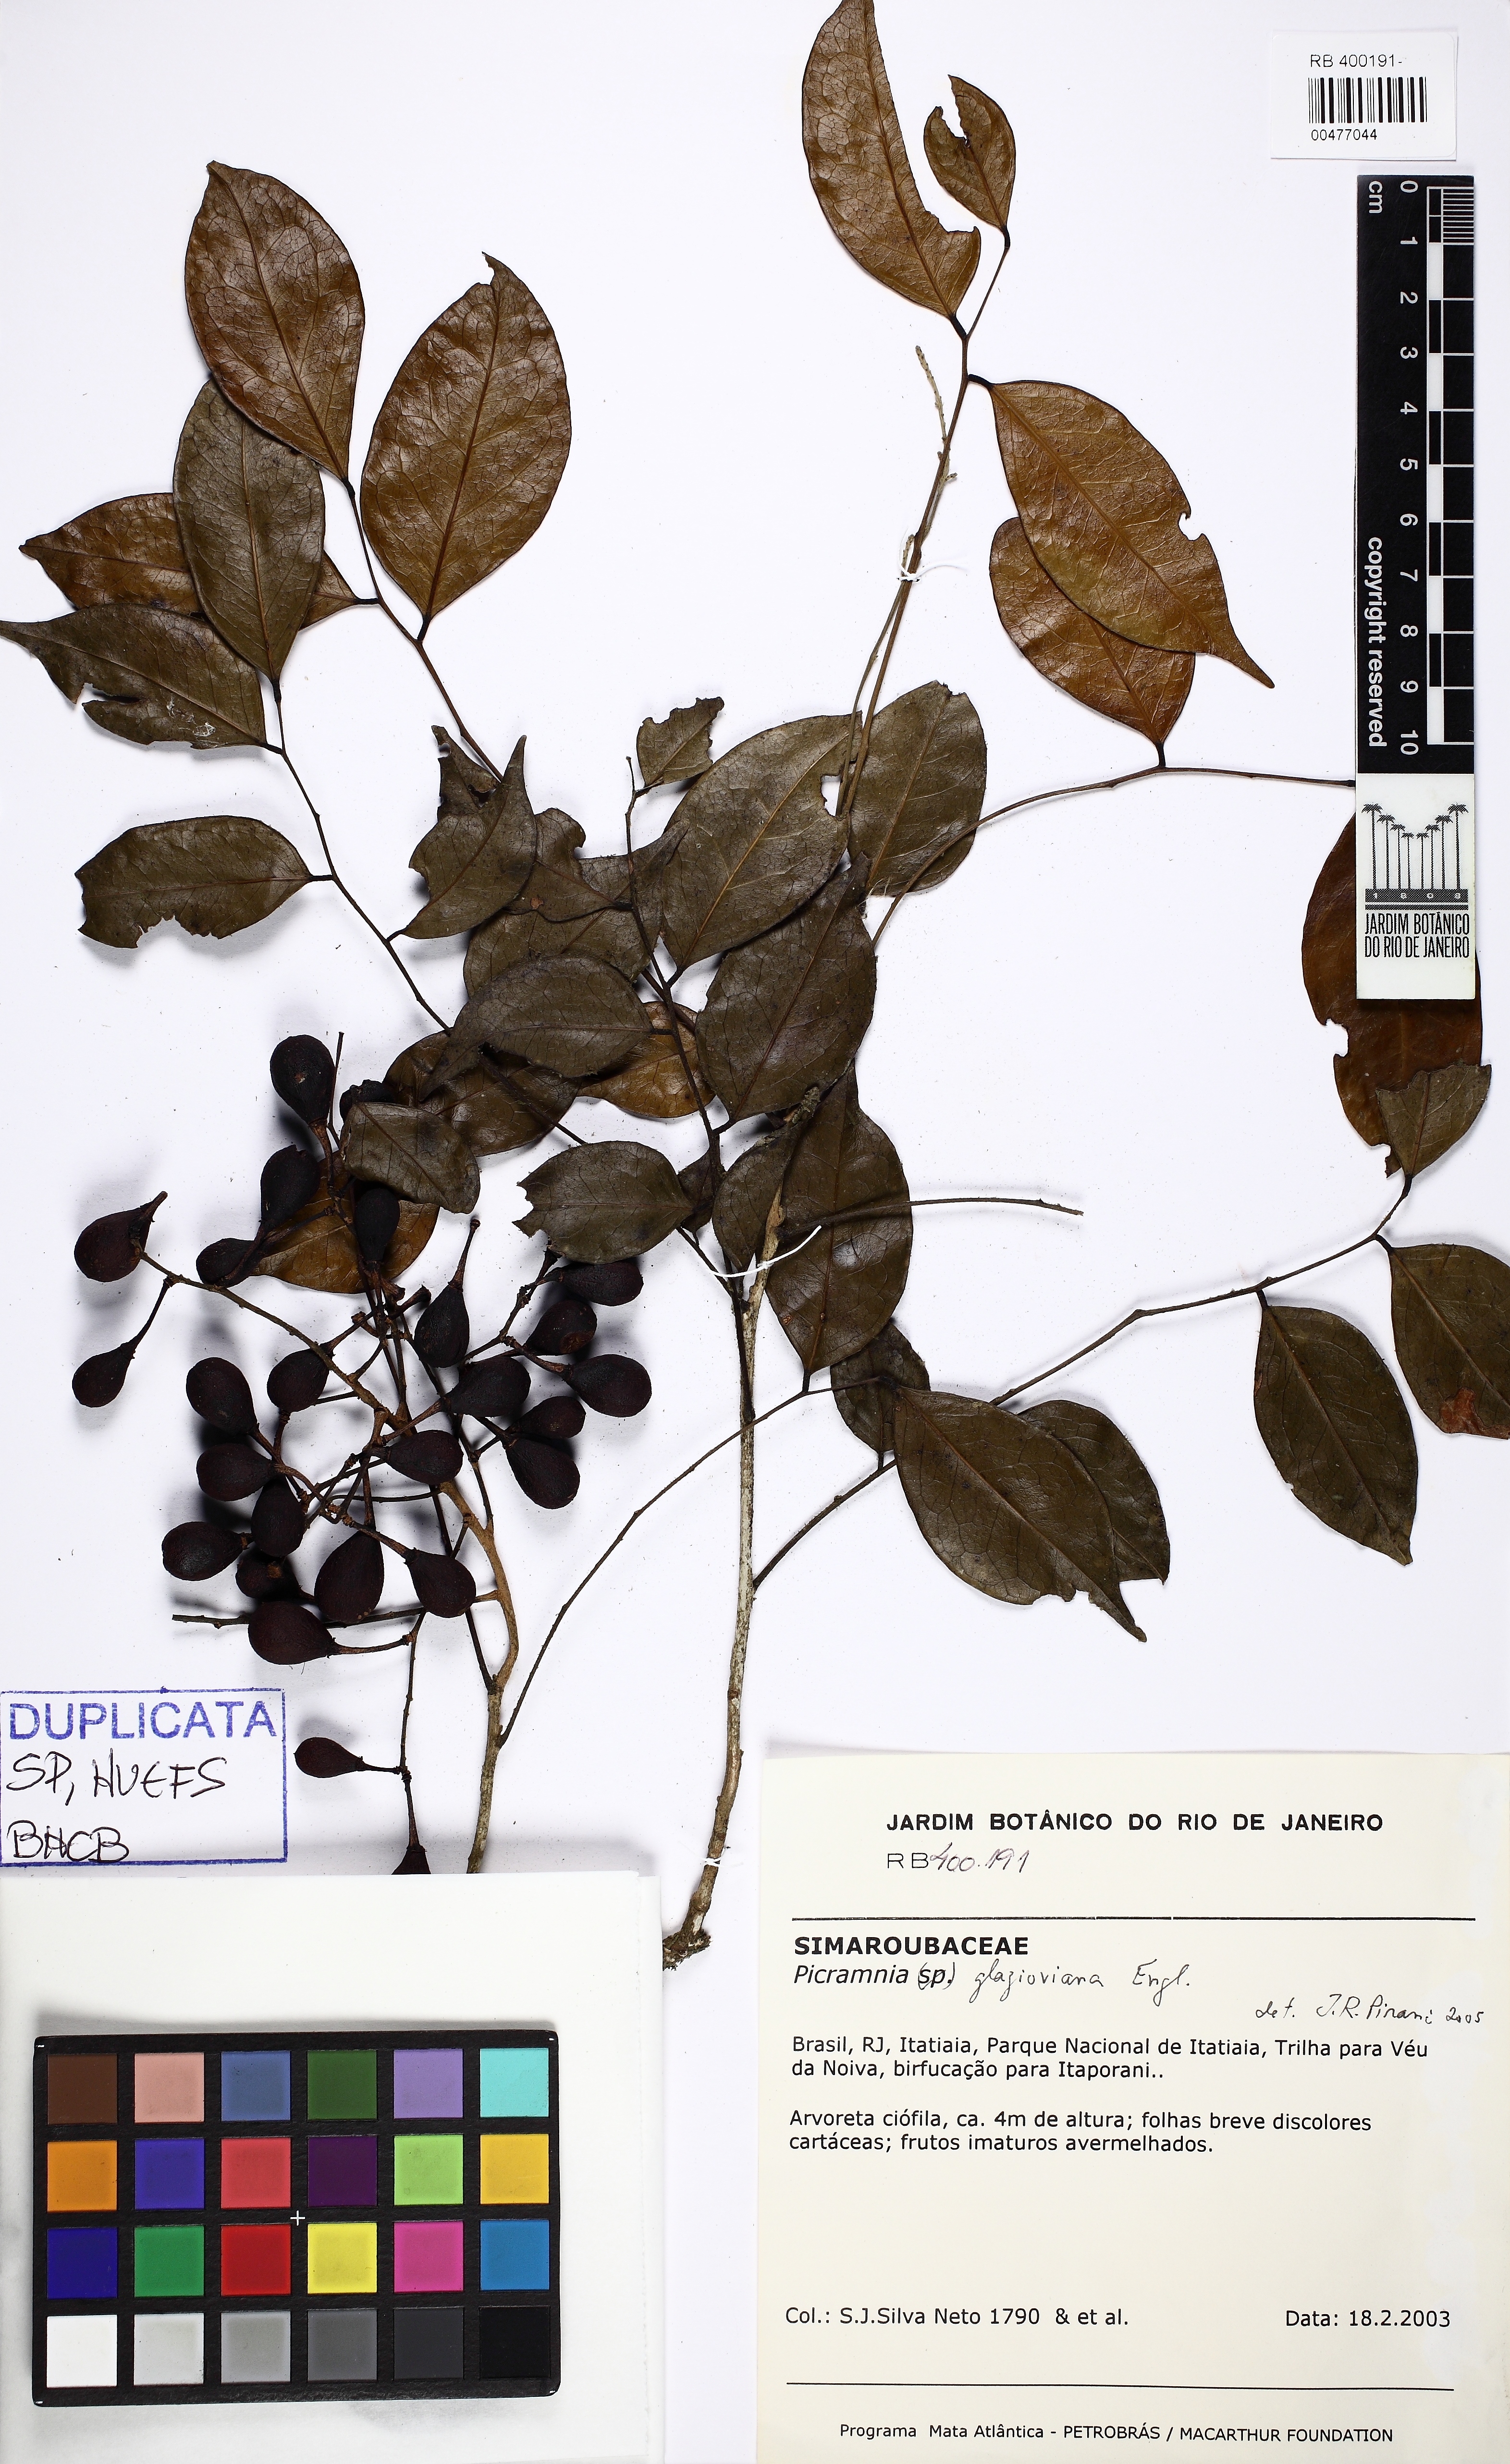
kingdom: Plantae
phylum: Tracheophyta
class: Magnoliopsida
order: Picramniales
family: Picramniaceae
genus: Picramnia
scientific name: Picramnia glazioviana
